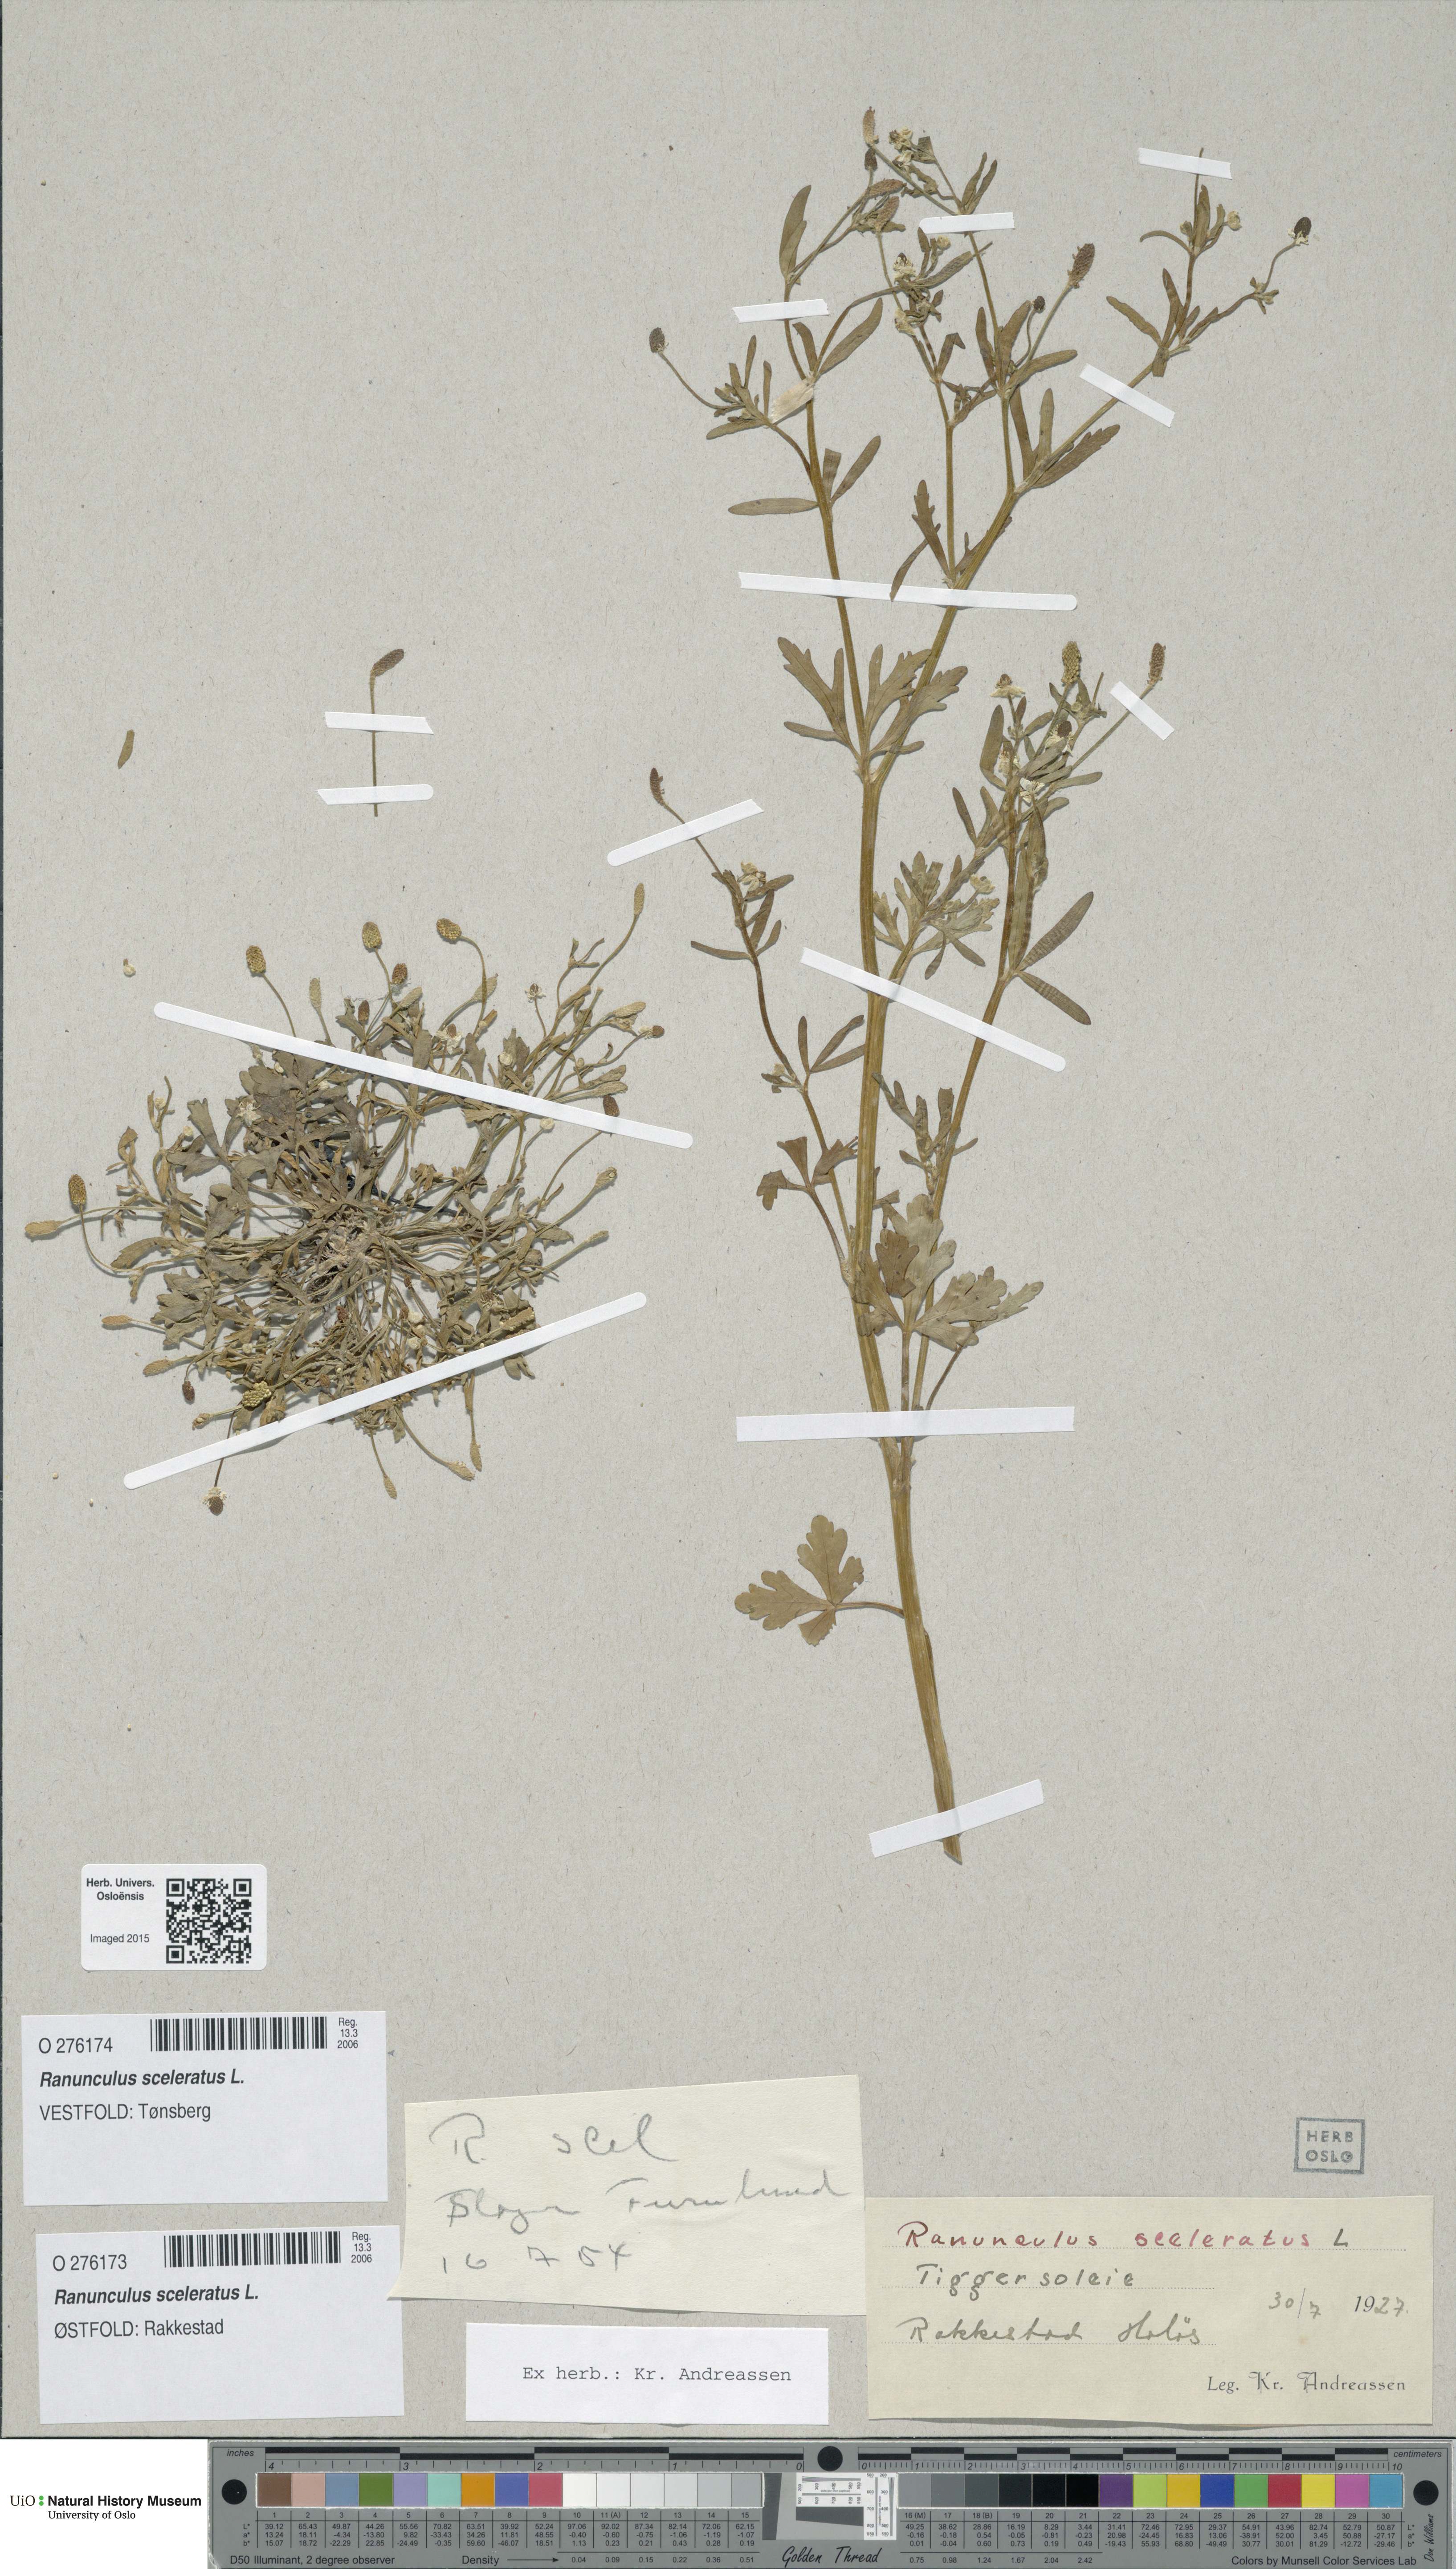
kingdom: Plantae
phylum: Tracheophyta
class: Magnoliopsida
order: Ranunculales
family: Ranunculaceae
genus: Ranunculus
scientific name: Ranunculus sceleratus
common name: Celery-leaved buttercup
